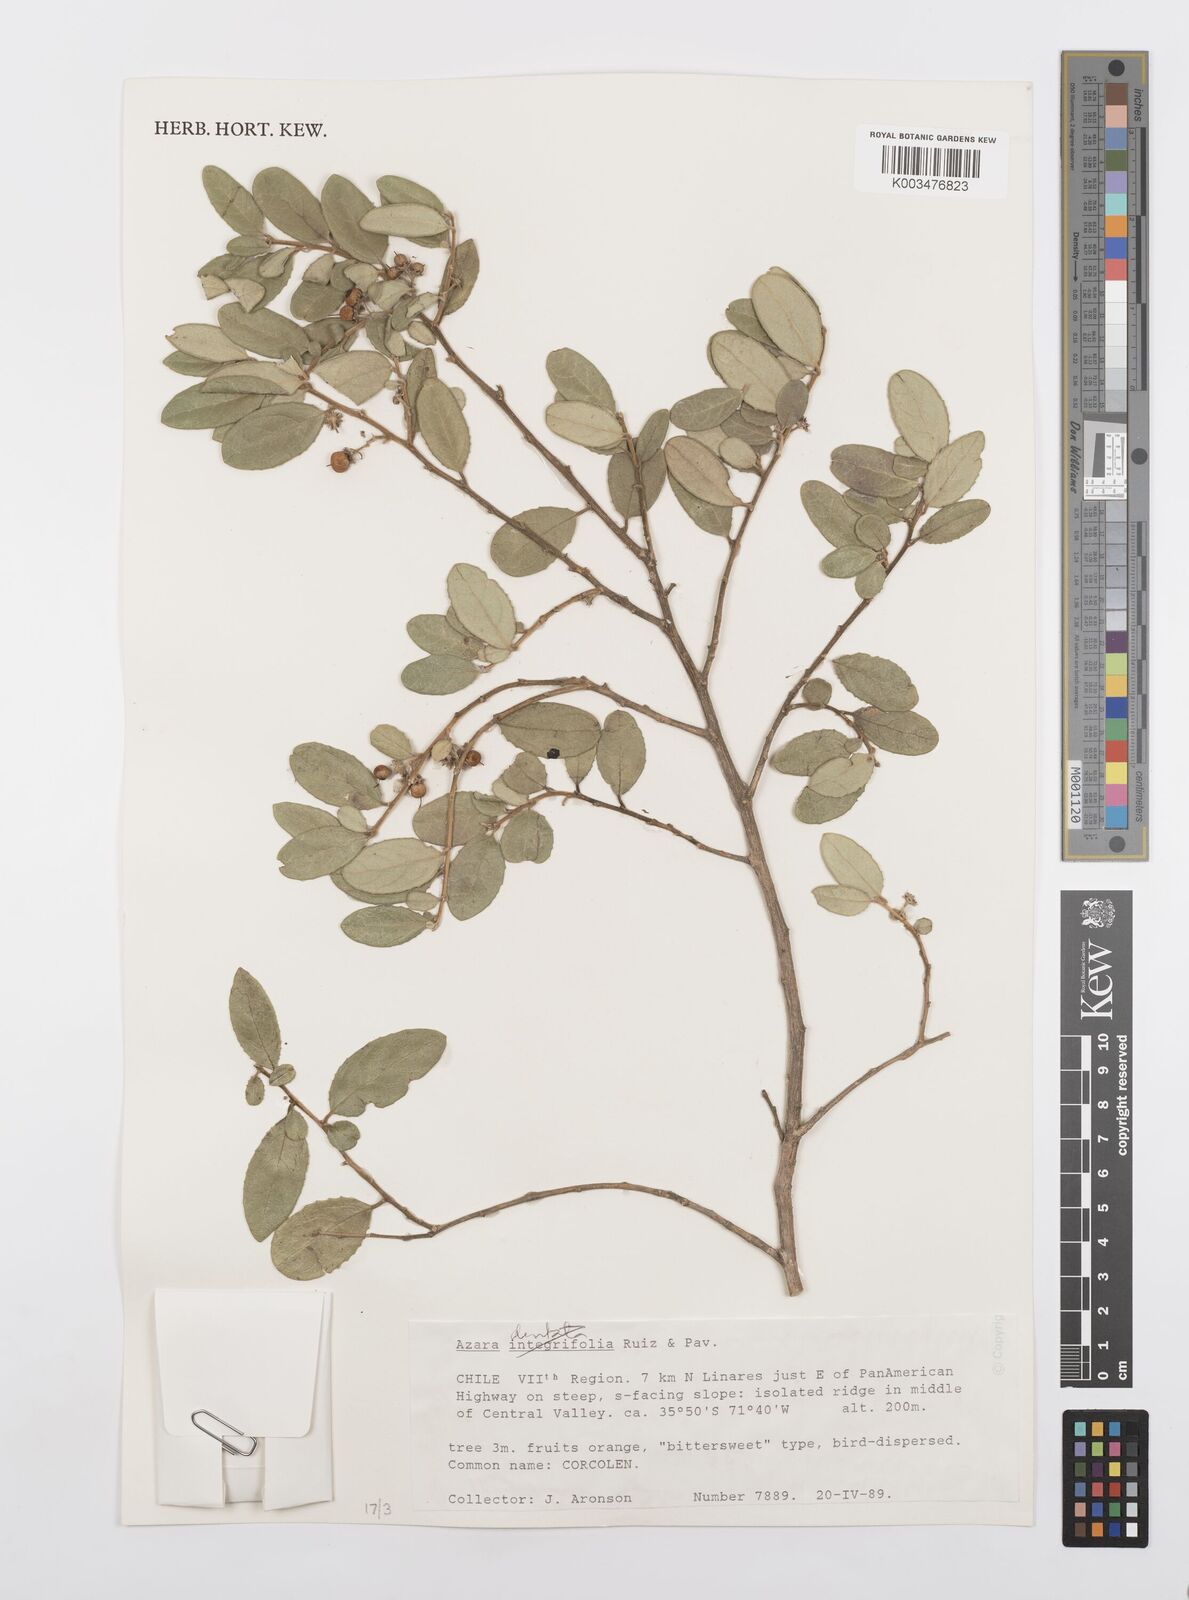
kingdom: Plantae
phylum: Tracheophyta
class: Magnoliopsida
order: Malpighiales
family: Salicaceae
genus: Azara
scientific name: Azara dentata
